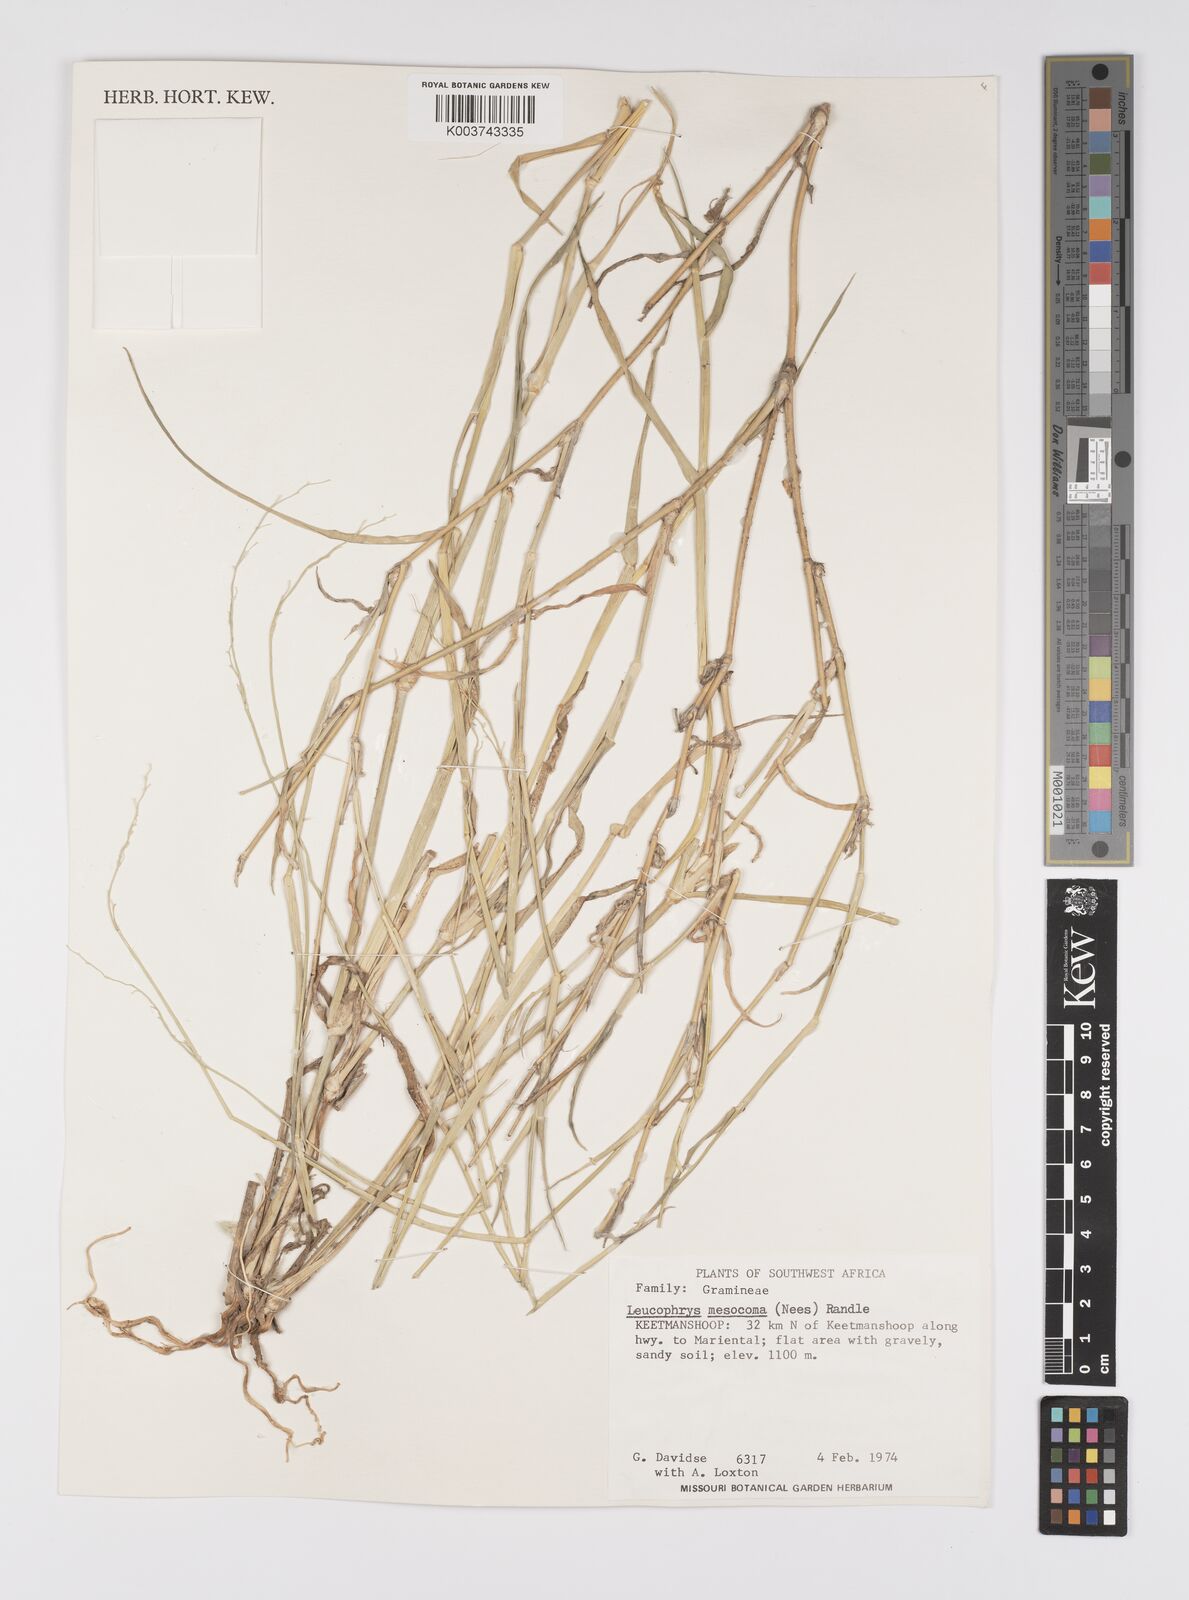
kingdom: Plantae
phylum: Tracheophyta
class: Liliopsida
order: Poales
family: Poaceae
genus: Urochloa
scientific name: Urochloa Brachiaria mesocoma
